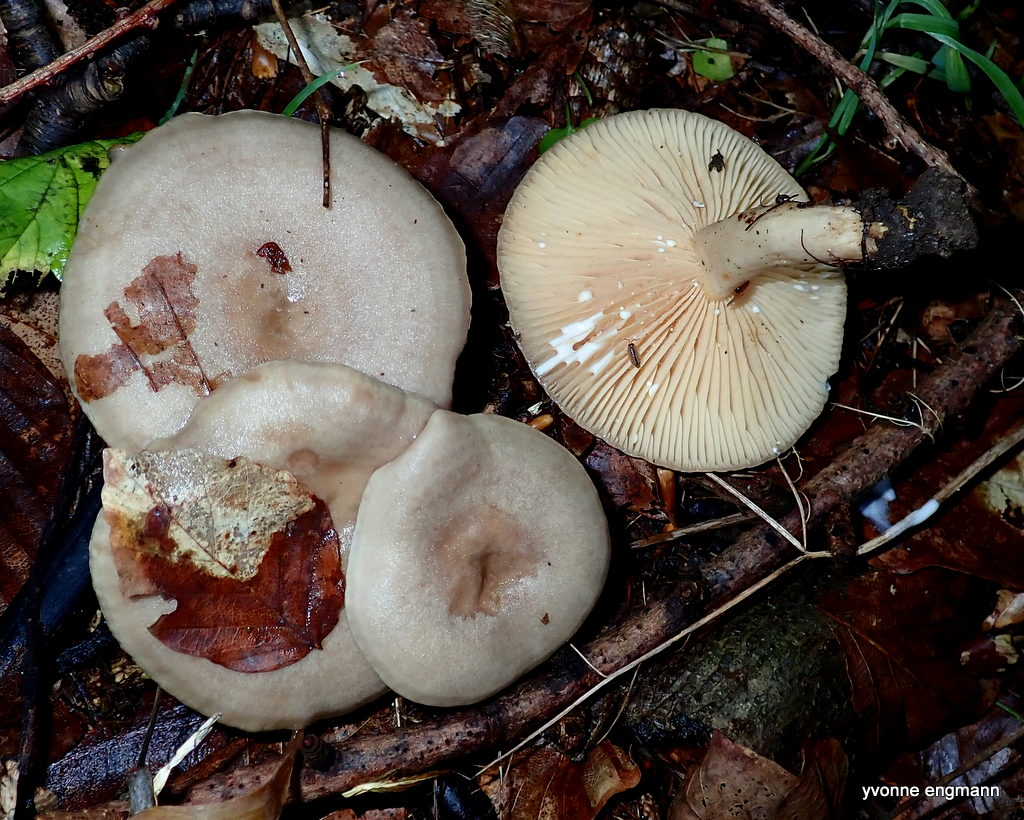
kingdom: Fungi
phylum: Basidiomycota
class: Agaricomycetes
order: Russulales
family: Russulaceae
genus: Lactarius
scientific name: Lactarius pyrogalus
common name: hassel-mælkehat
